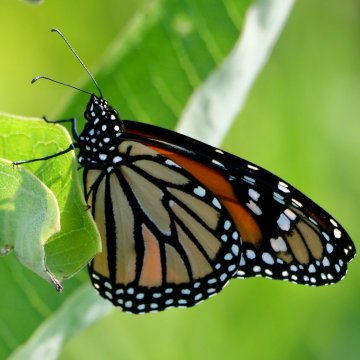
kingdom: Animalia
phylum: Arthropoda
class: Insecta
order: Lepidoptera
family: Nymphalidae
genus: Danaus
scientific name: Danaus plexippus
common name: Monarch
